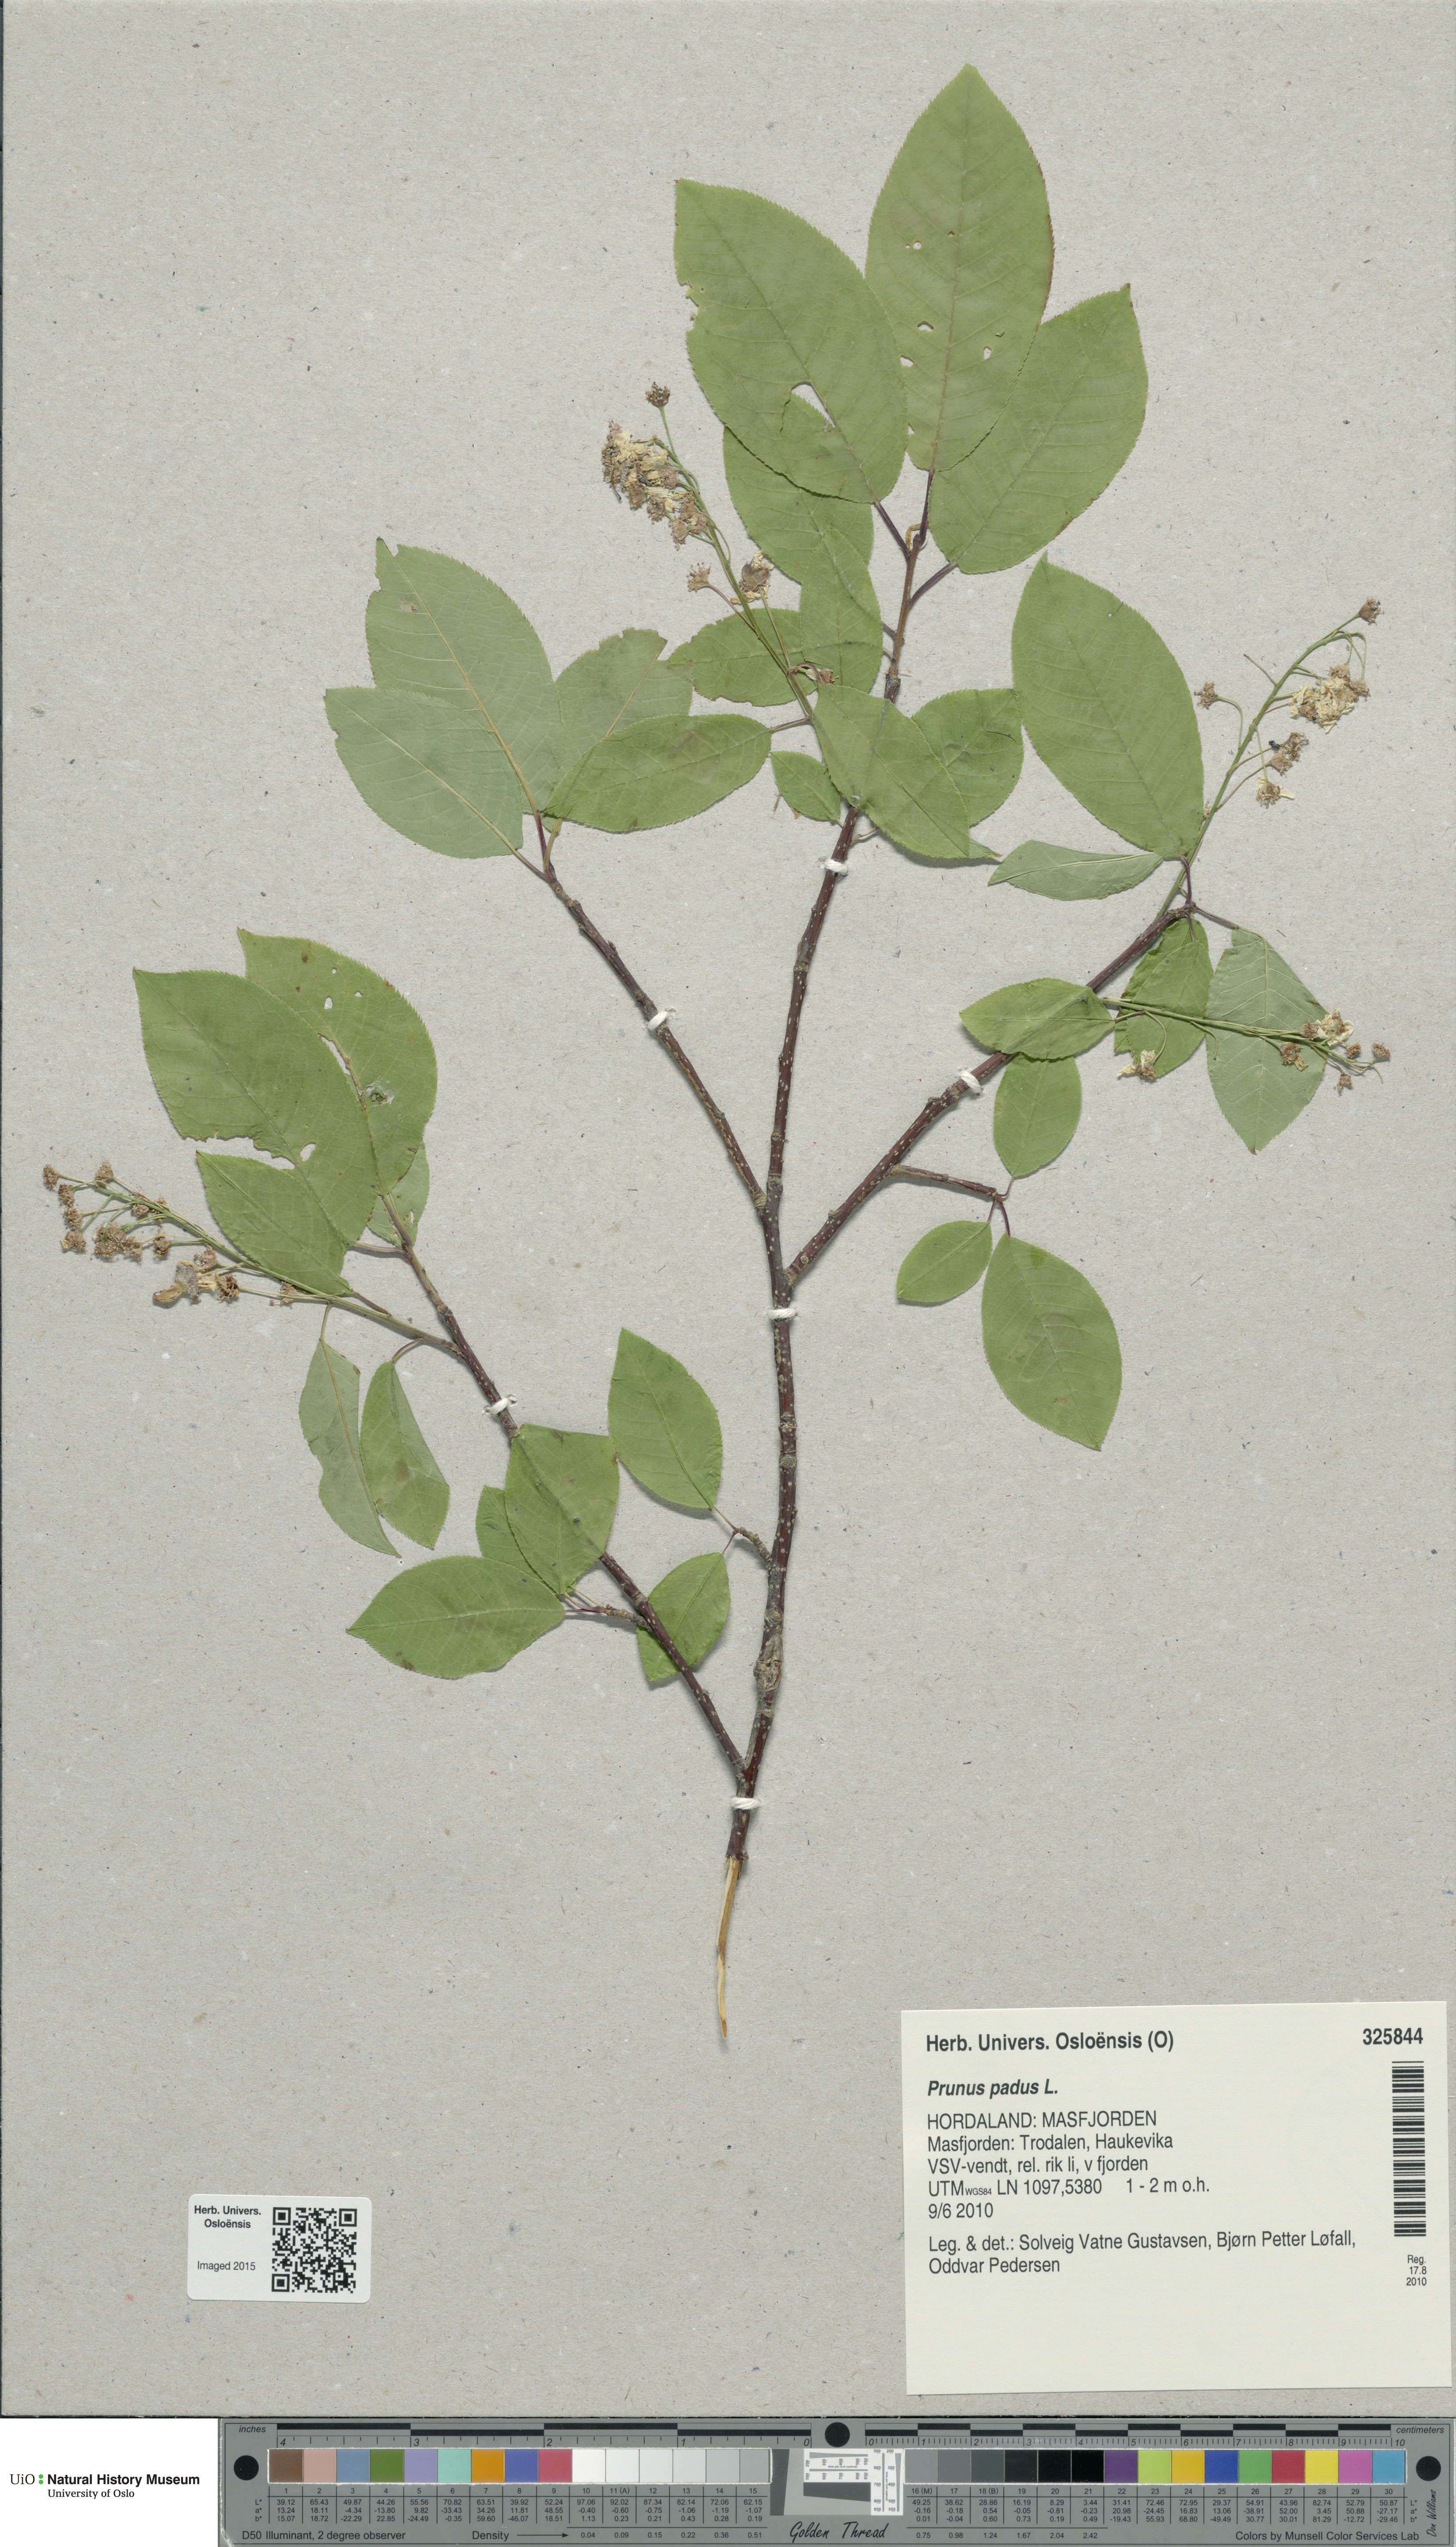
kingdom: Plantae
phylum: Tracheophyta
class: Magnoliopsida
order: Rosales
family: Rosaceae
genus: Prunus
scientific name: Prunus padus
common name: Bird cherry
